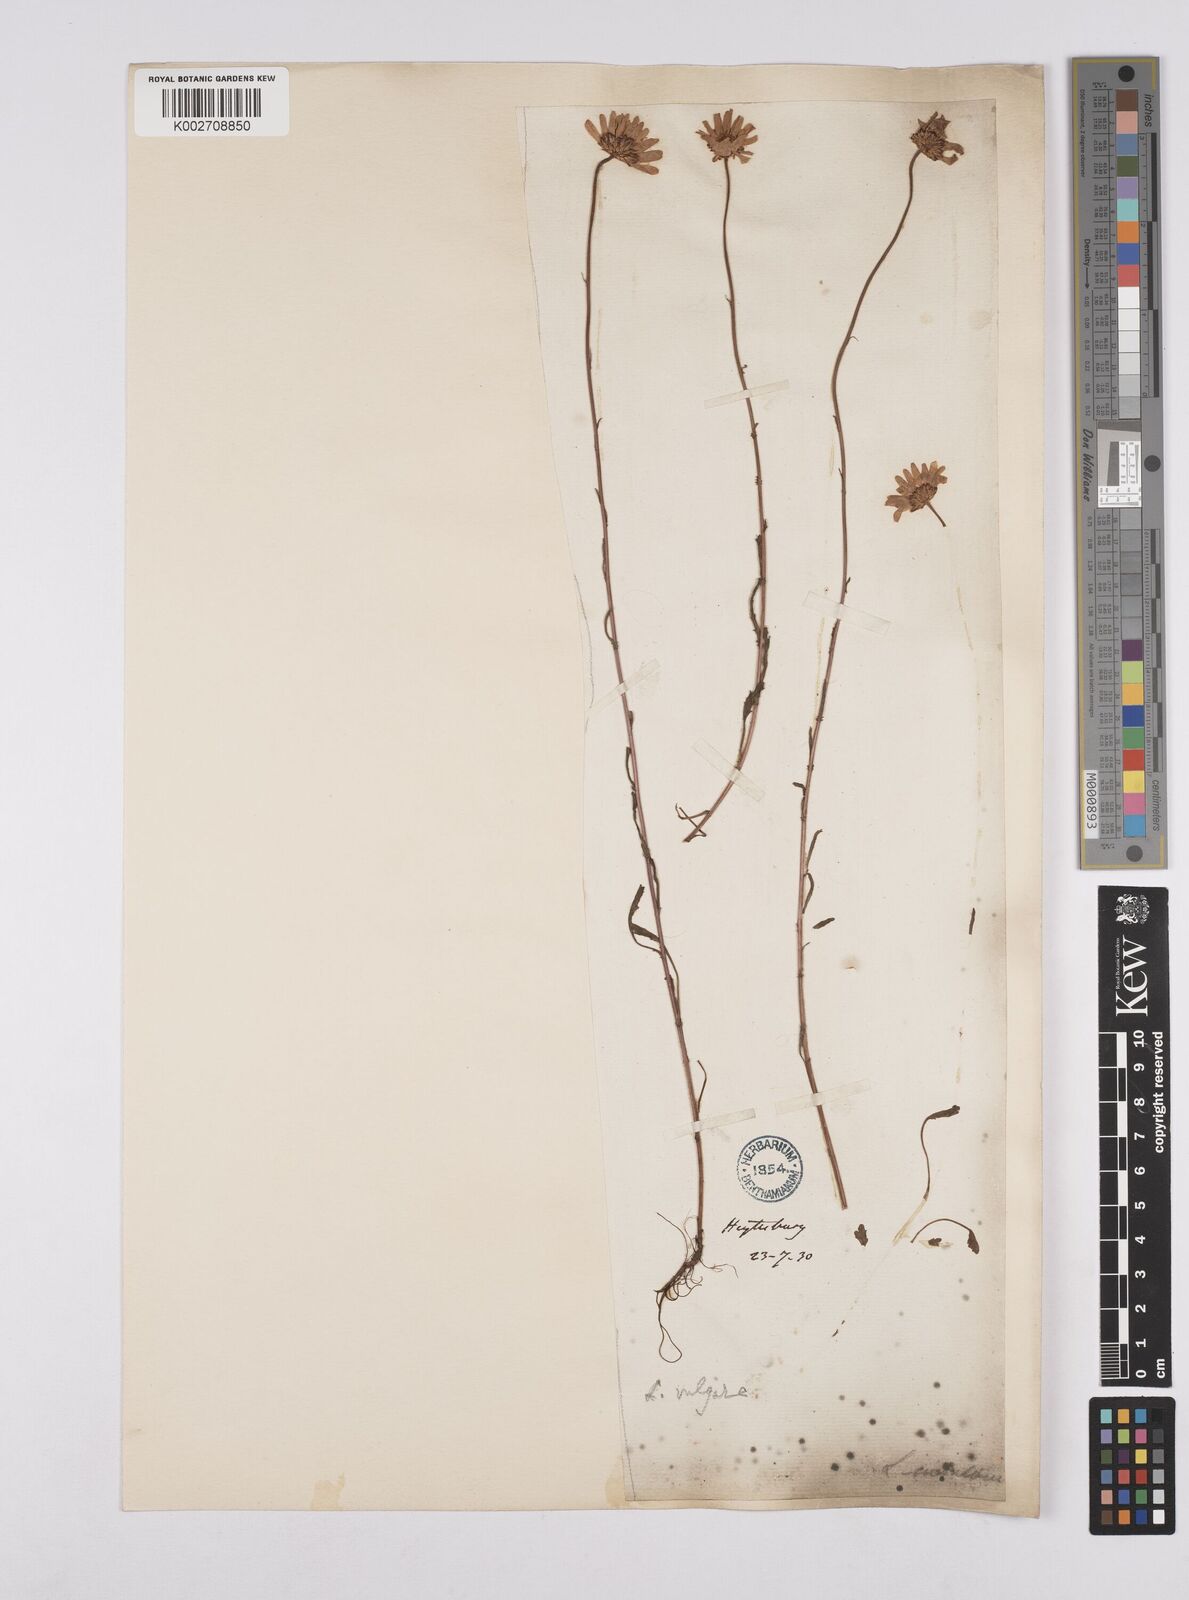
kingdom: Plantae
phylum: Tracheophyta
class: Magnoliopsida
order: Asterales
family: Asteraceae
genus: Leucanthemum
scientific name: Leucanthemum
